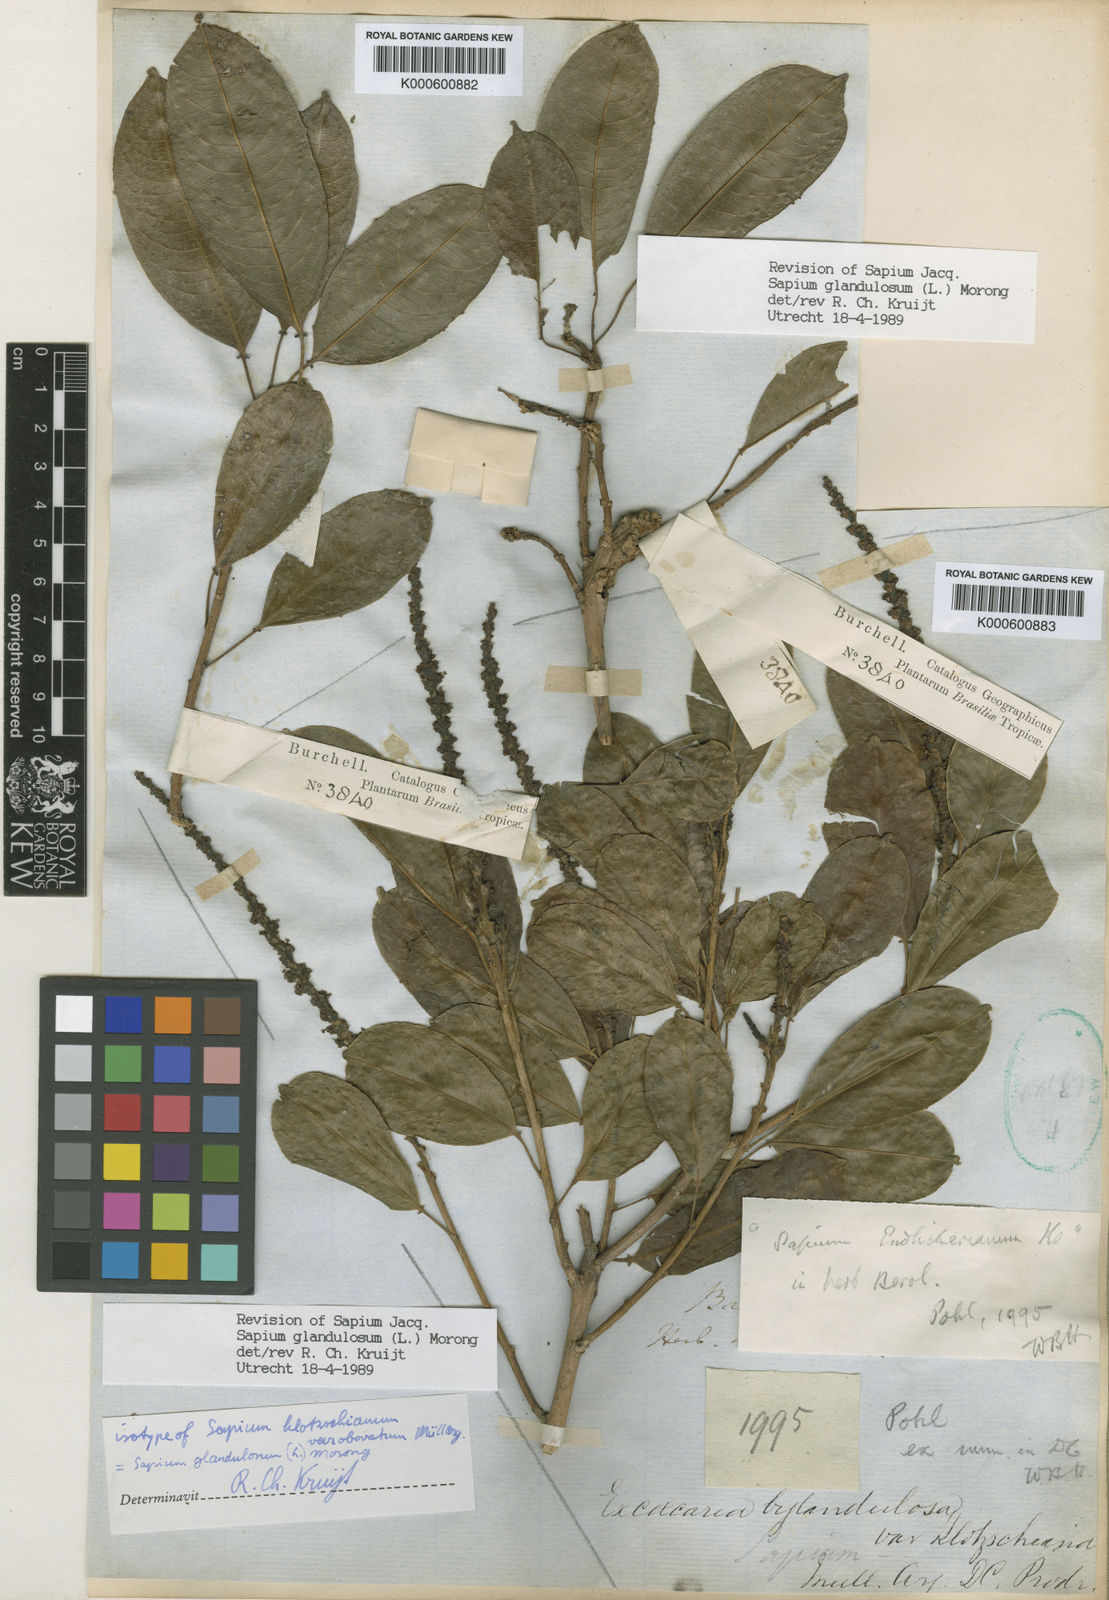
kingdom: Plantae
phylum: Tracheophyta
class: Magnoliopsida
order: Malpighiales
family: Euphorbiaceae
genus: Sapium
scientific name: Sapium glandulosum
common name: Milktree
